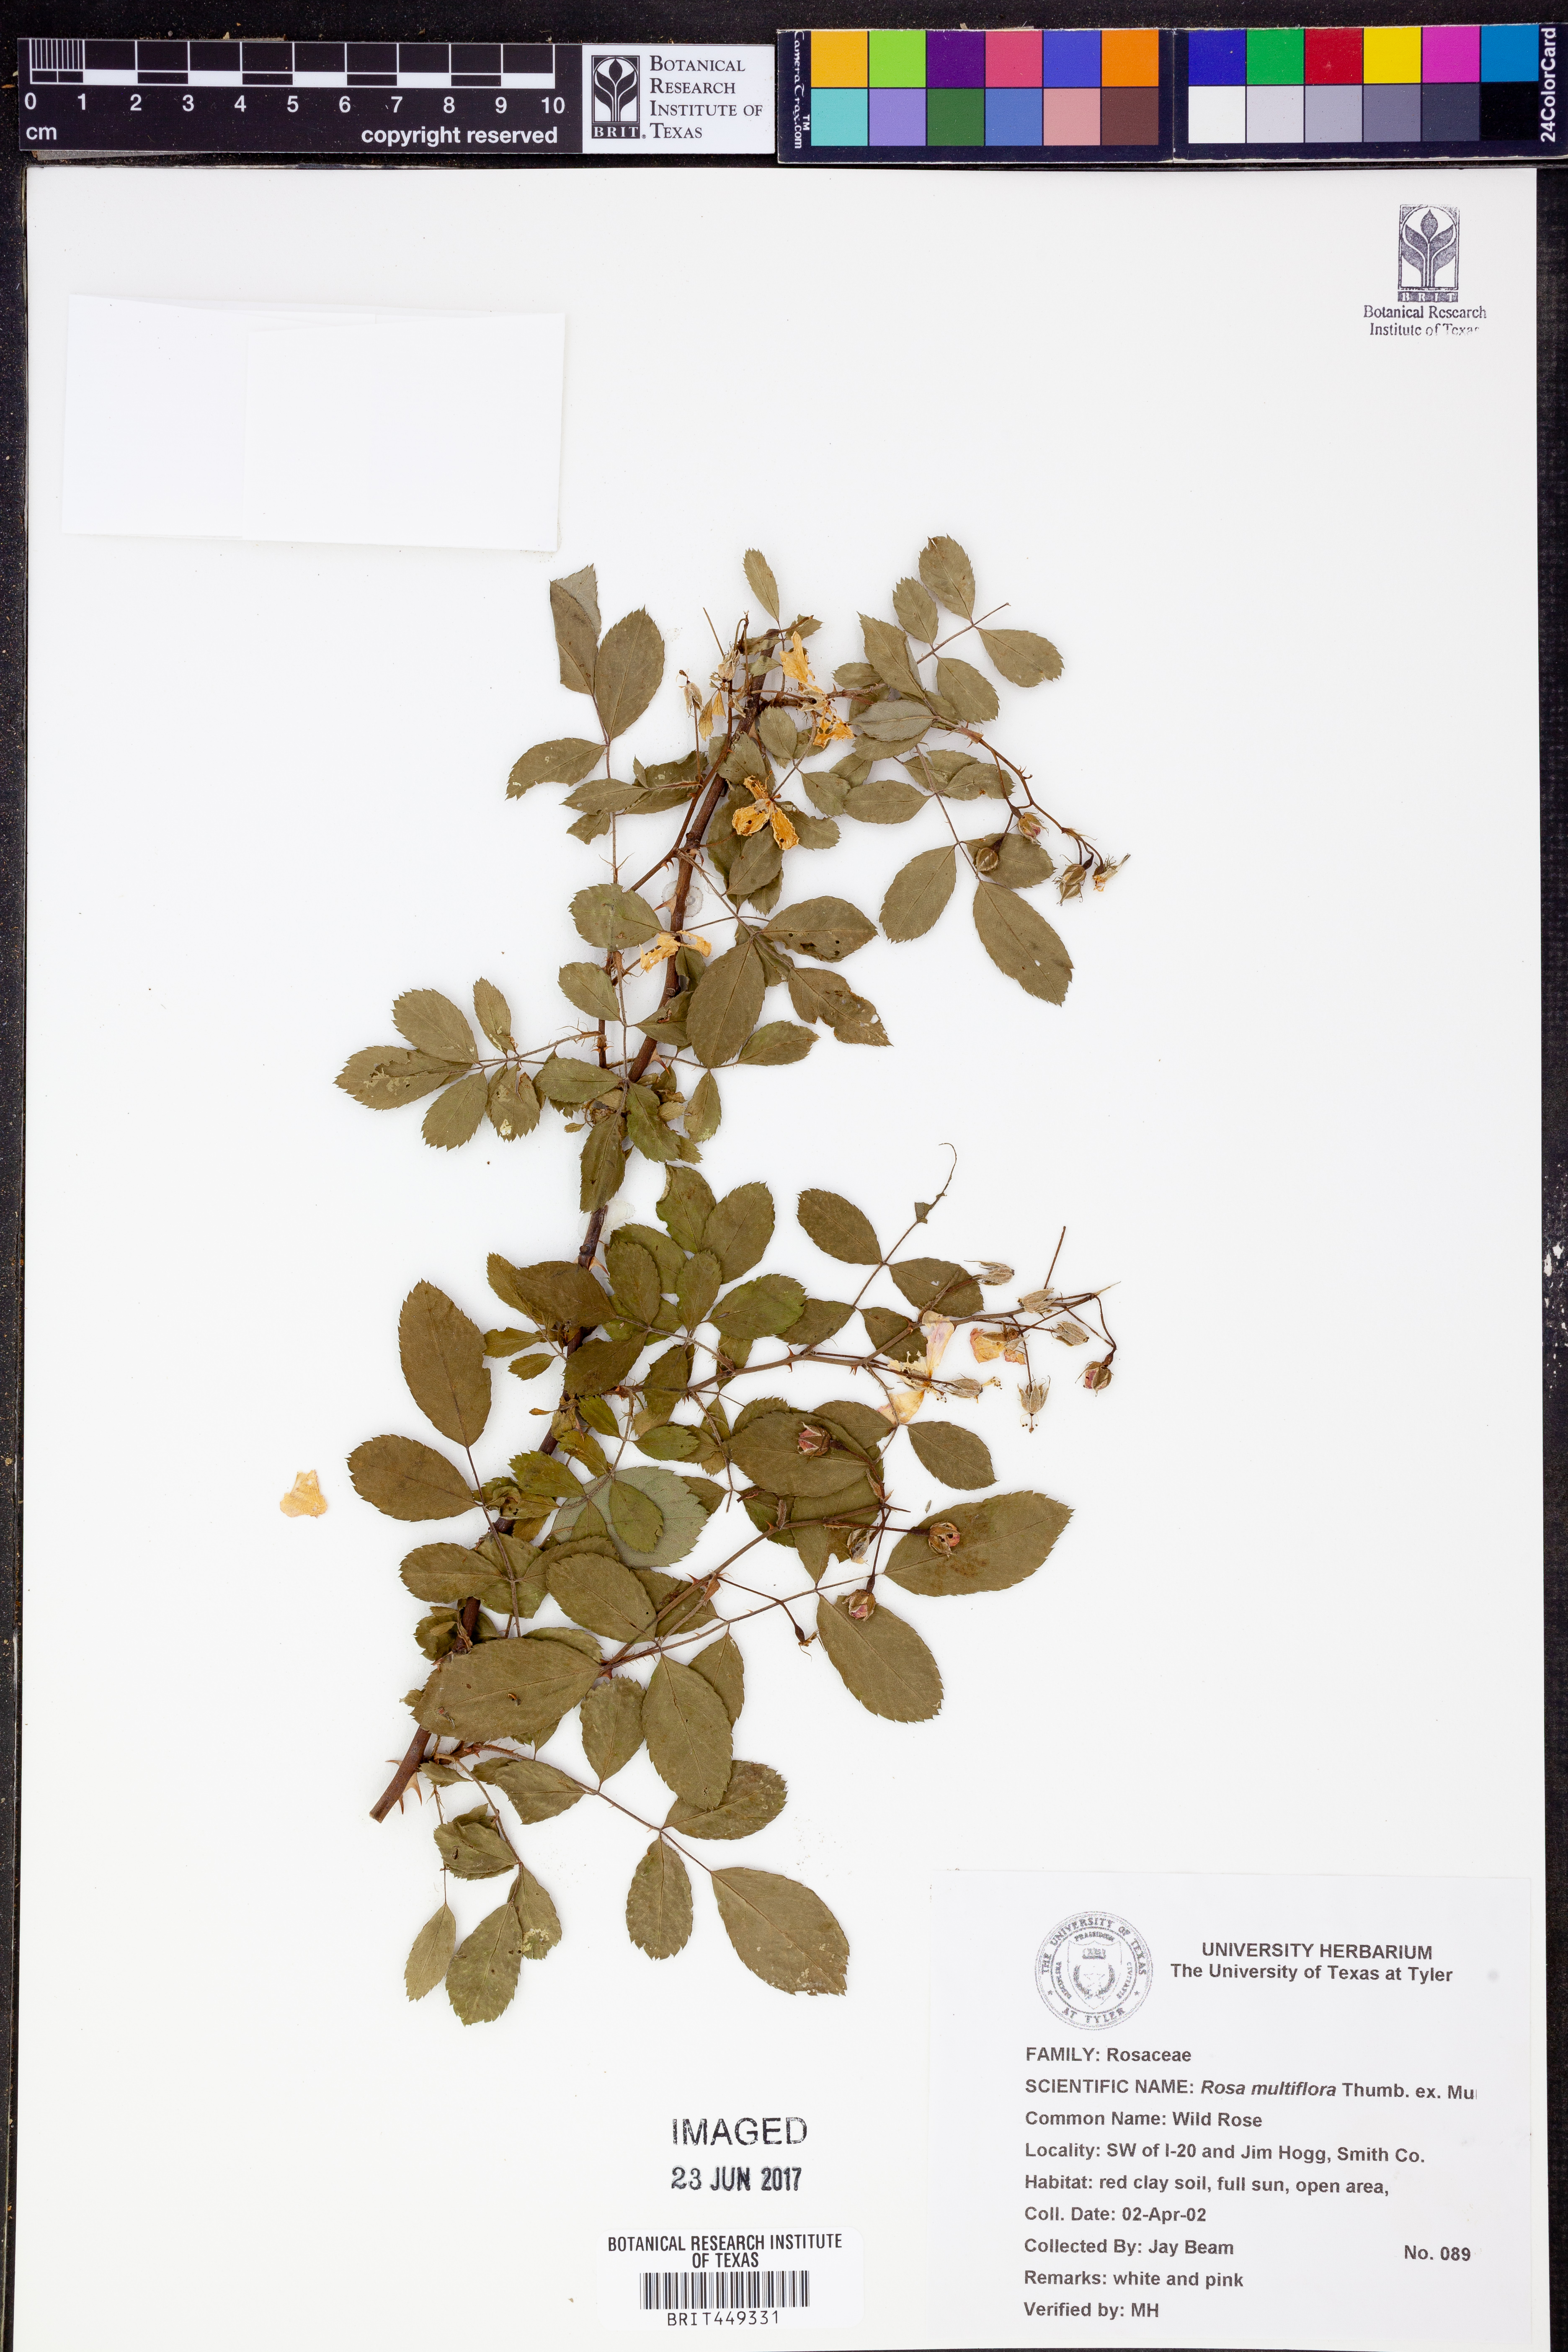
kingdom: Plantae
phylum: Tracheophyta
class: Magnoliopsida
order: Rosales
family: Rosaceae
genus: Rosa
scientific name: Rosa multiflora
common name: Multiflora rose
